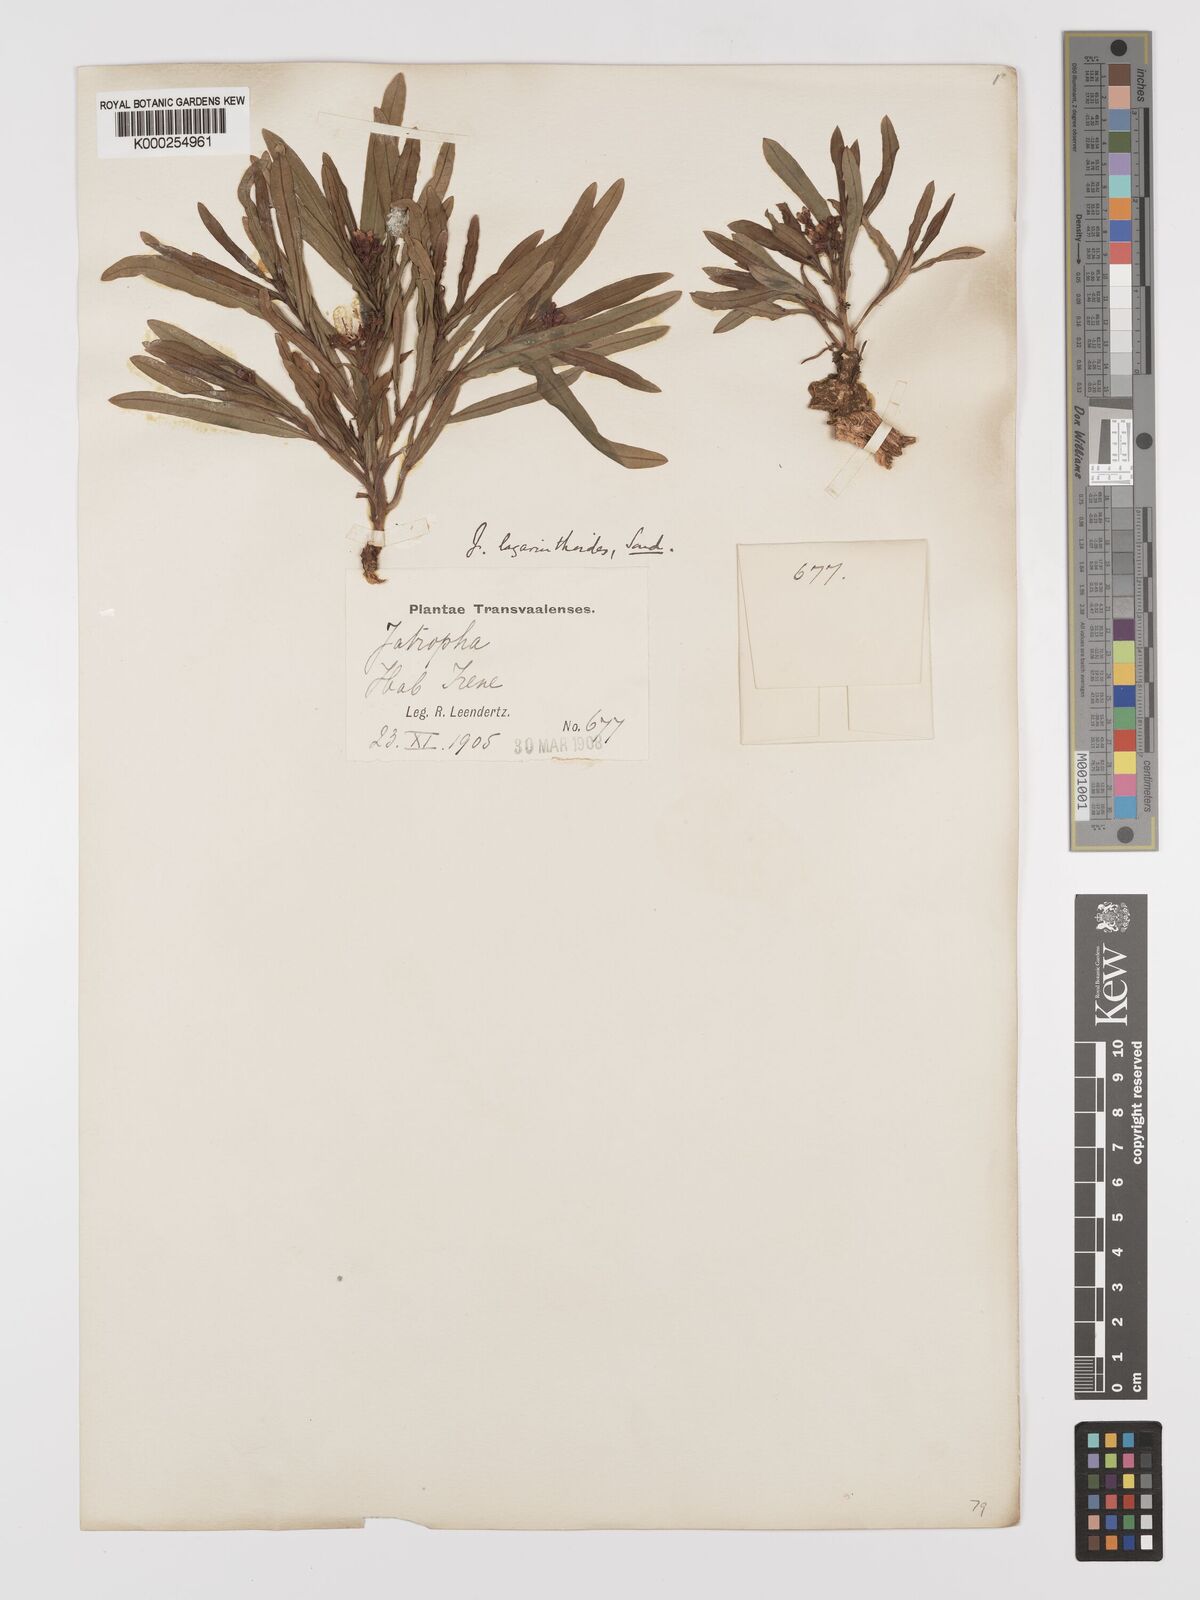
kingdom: Plantae
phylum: Tracheophyta
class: Magnoliopsida
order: Malpighiales
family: Euphorbiaceae
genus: Jatropha
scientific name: Jatropha lagarinthoides
